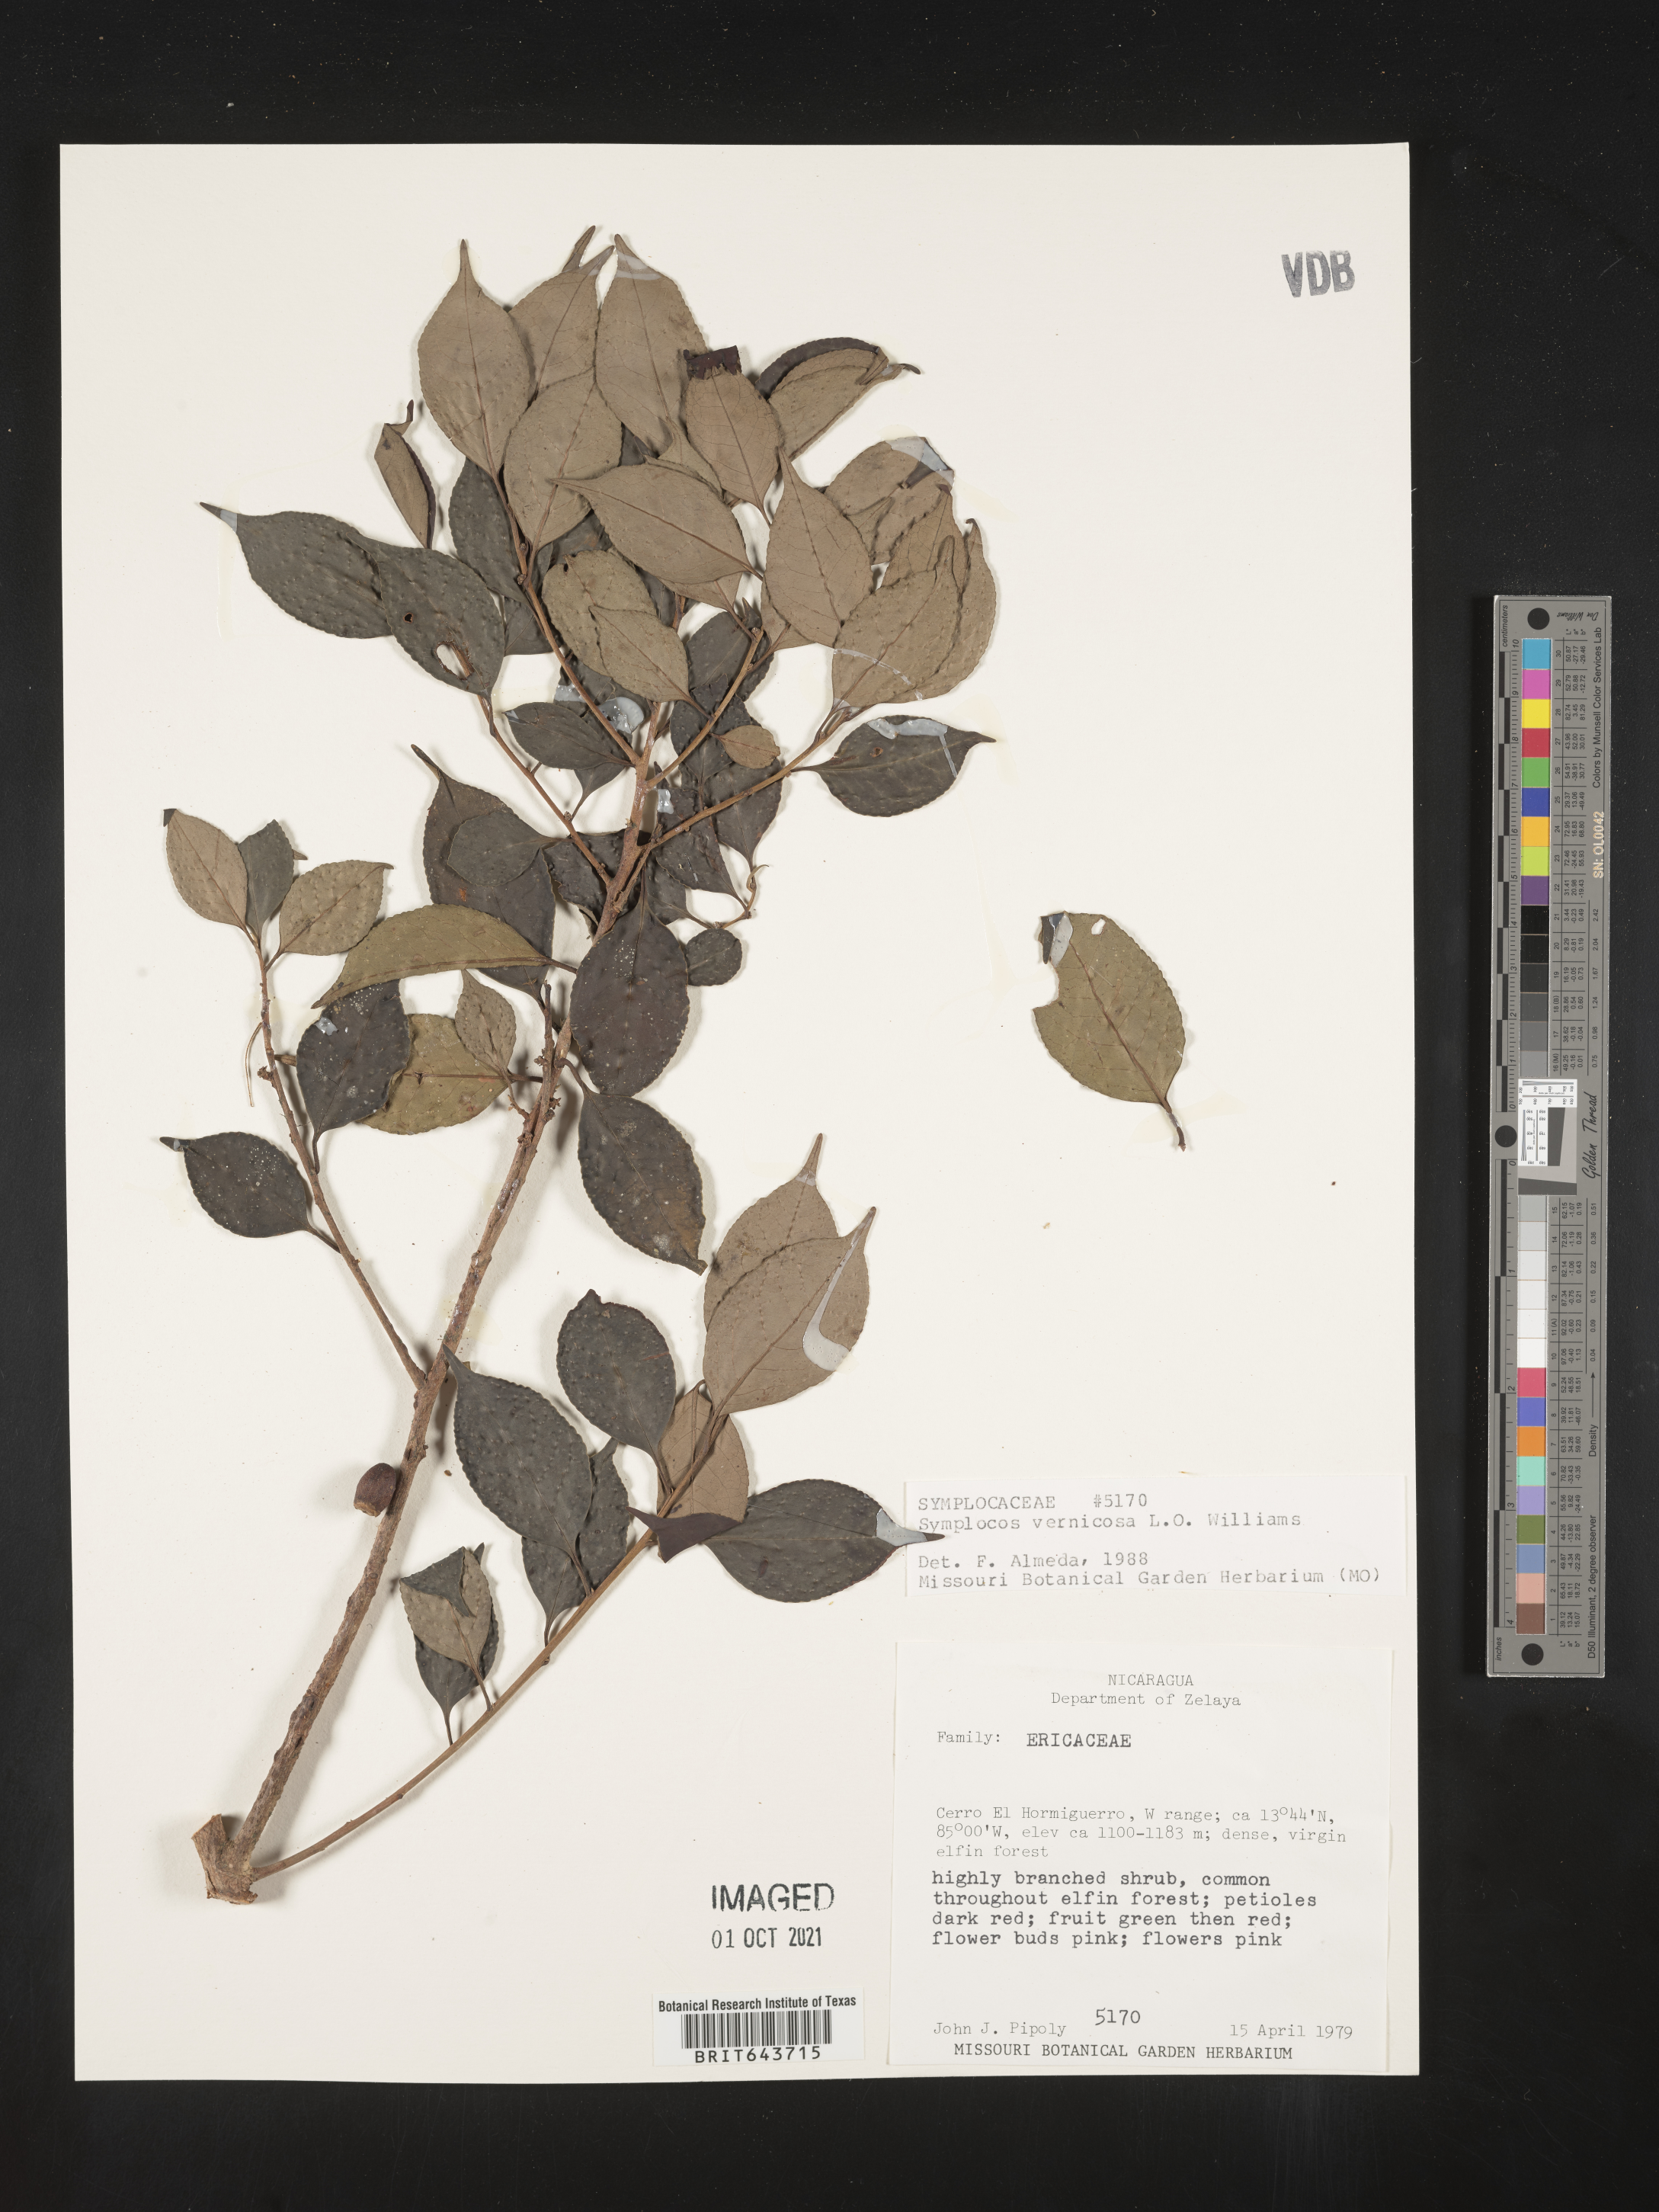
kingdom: Plantae
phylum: Tracheophyta
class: Magnoliopsida
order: Ericales
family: Symplocaceae
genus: Symplocos
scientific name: Symplocos
